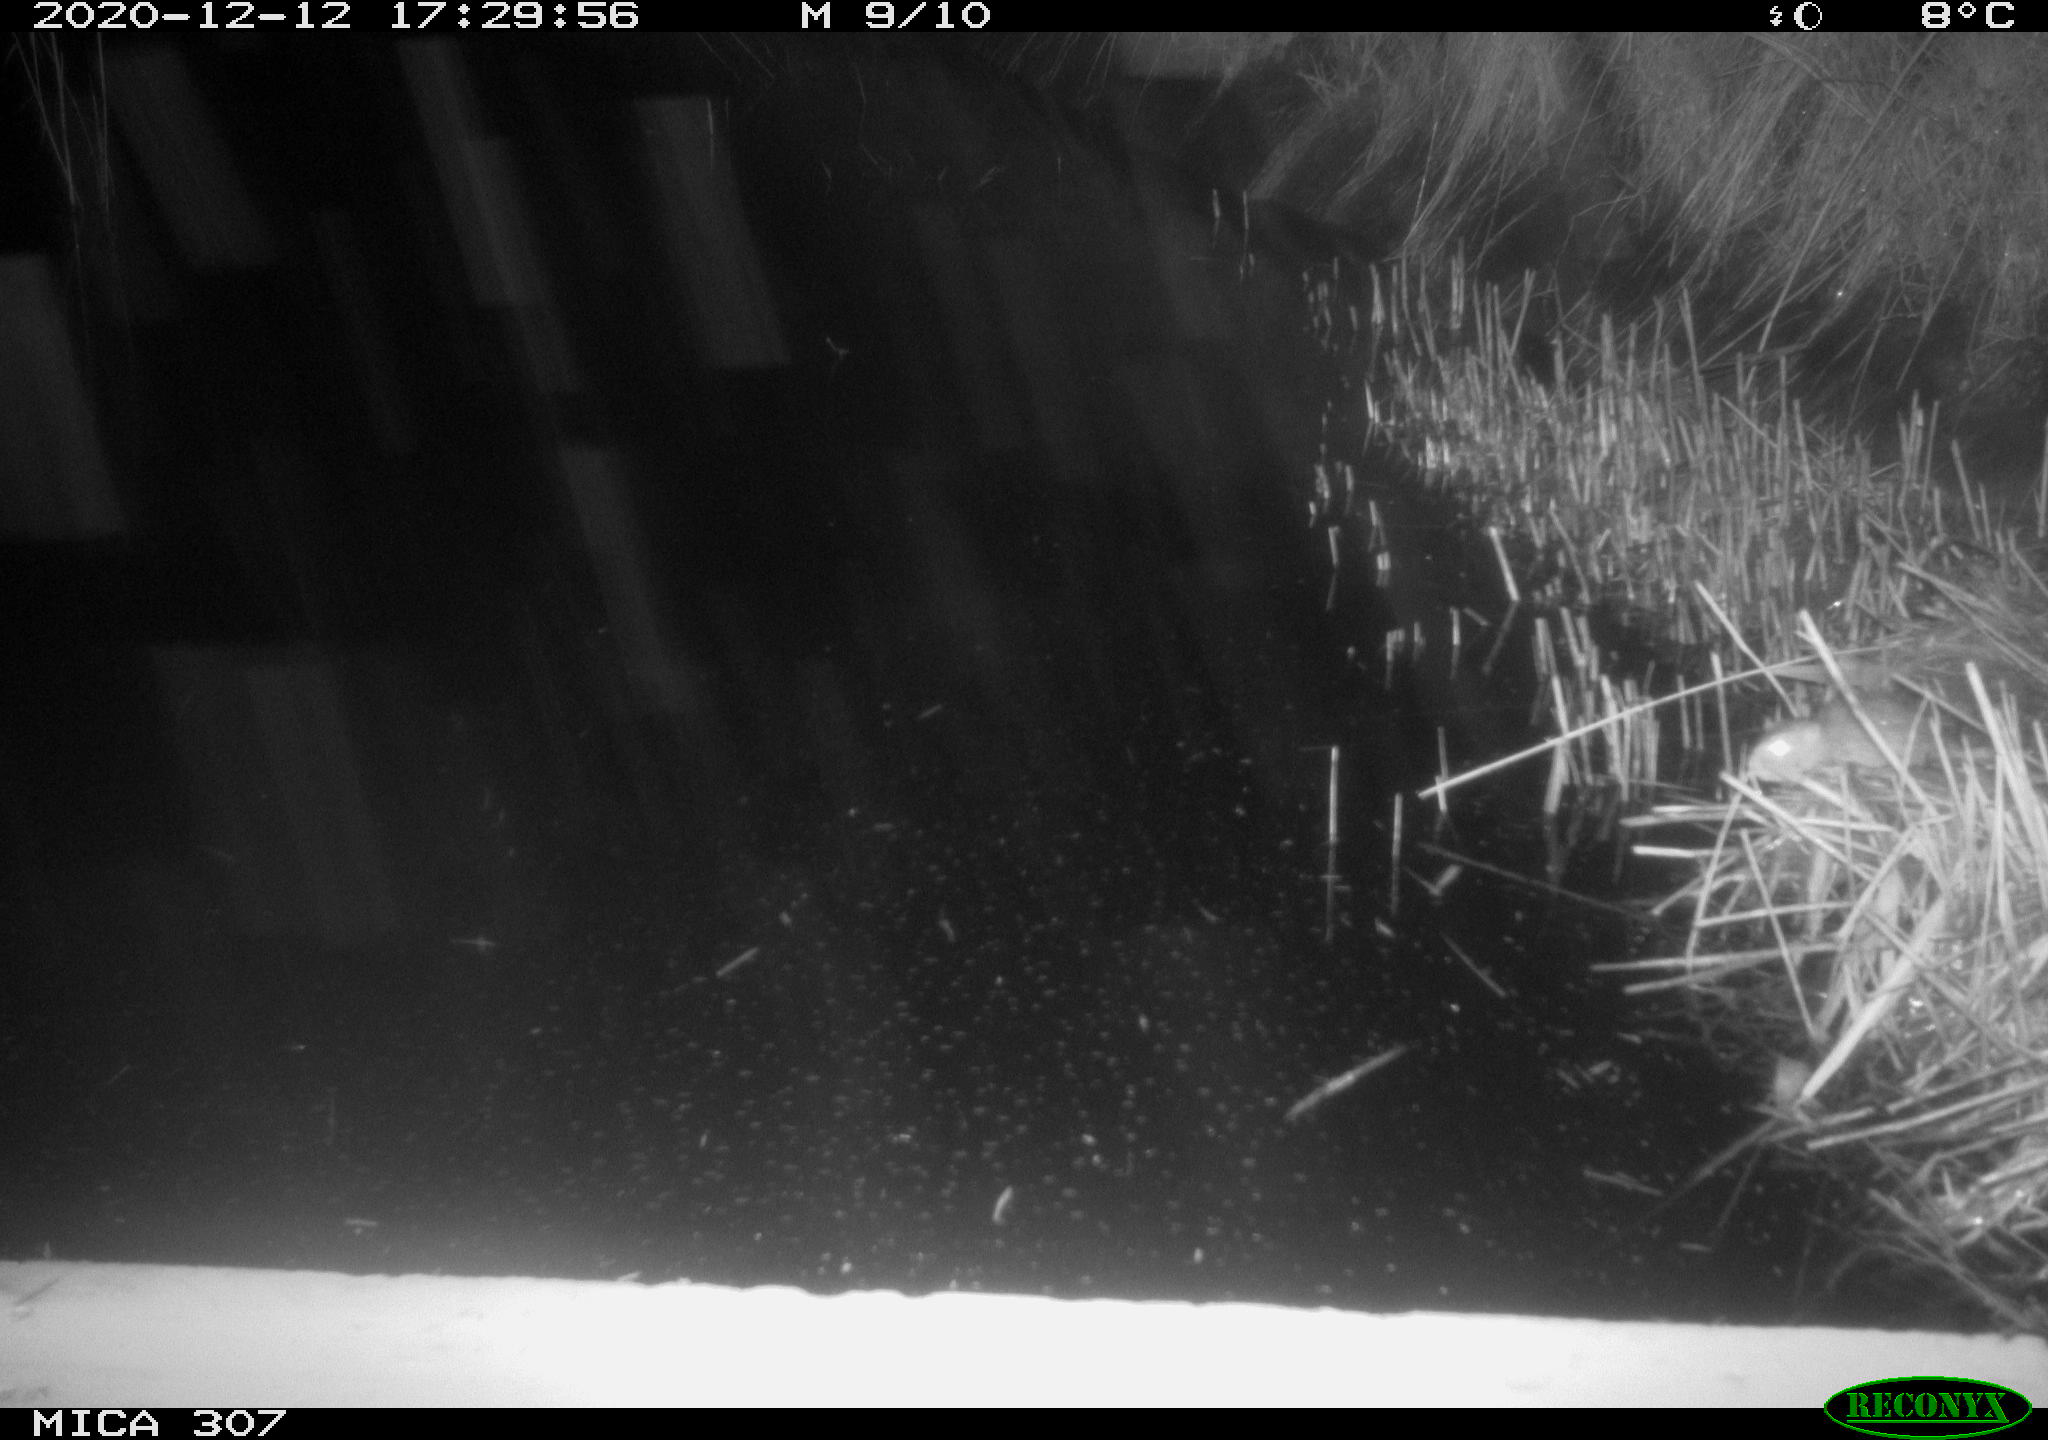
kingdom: Animalia
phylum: Chordata
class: Mammalia
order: Rodentia
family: Muridae
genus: Rattus
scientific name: Rattus norvegicus
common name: Brown rat
